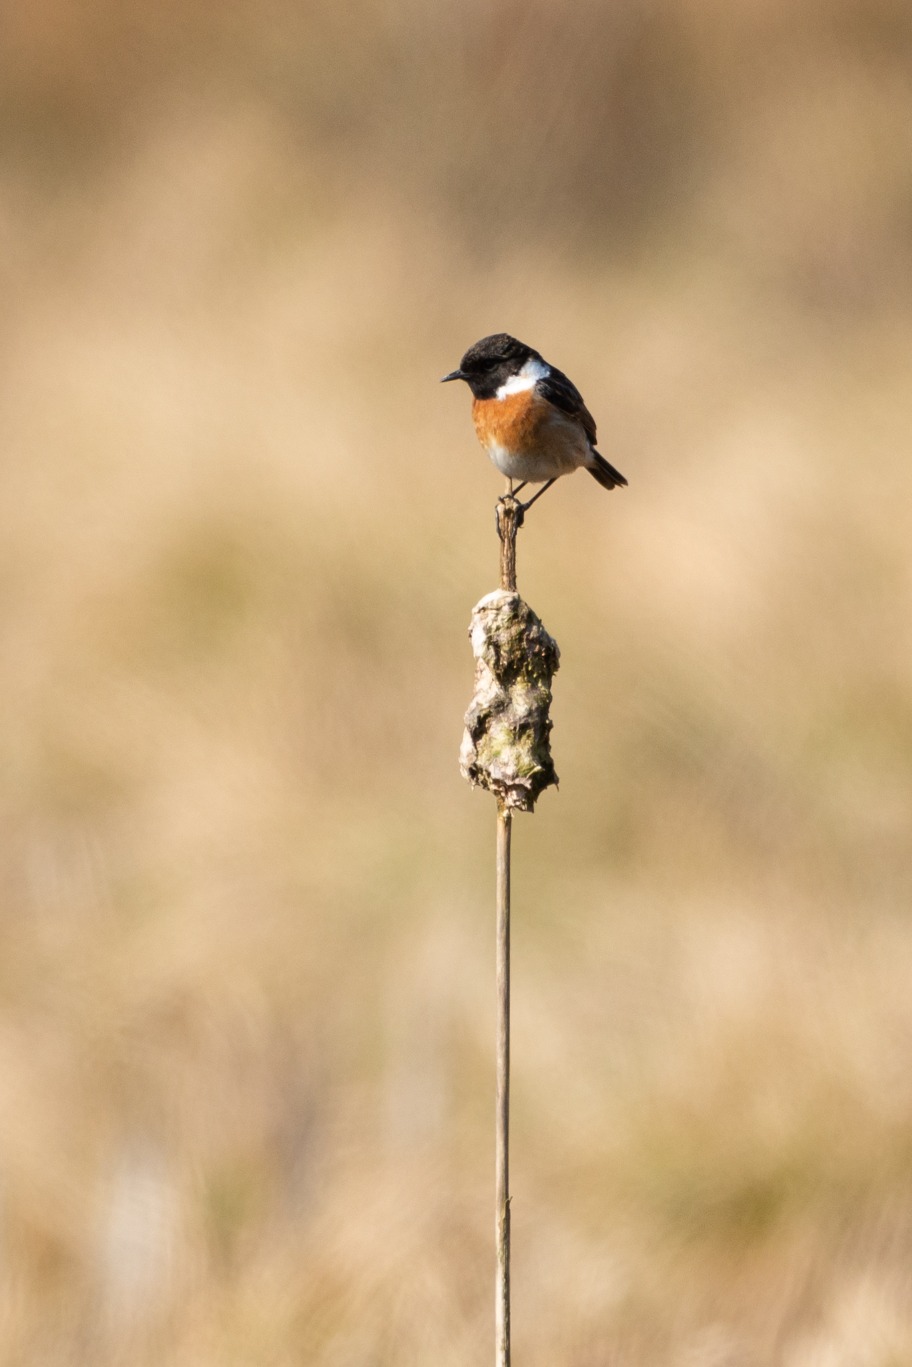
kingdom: Animalia
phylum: Chordata
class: Aves
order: Passeriformes
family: Muscicapidae
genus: Saxicola
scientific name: Saxicola rubicola
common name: Sortstrubet bynkefugl
